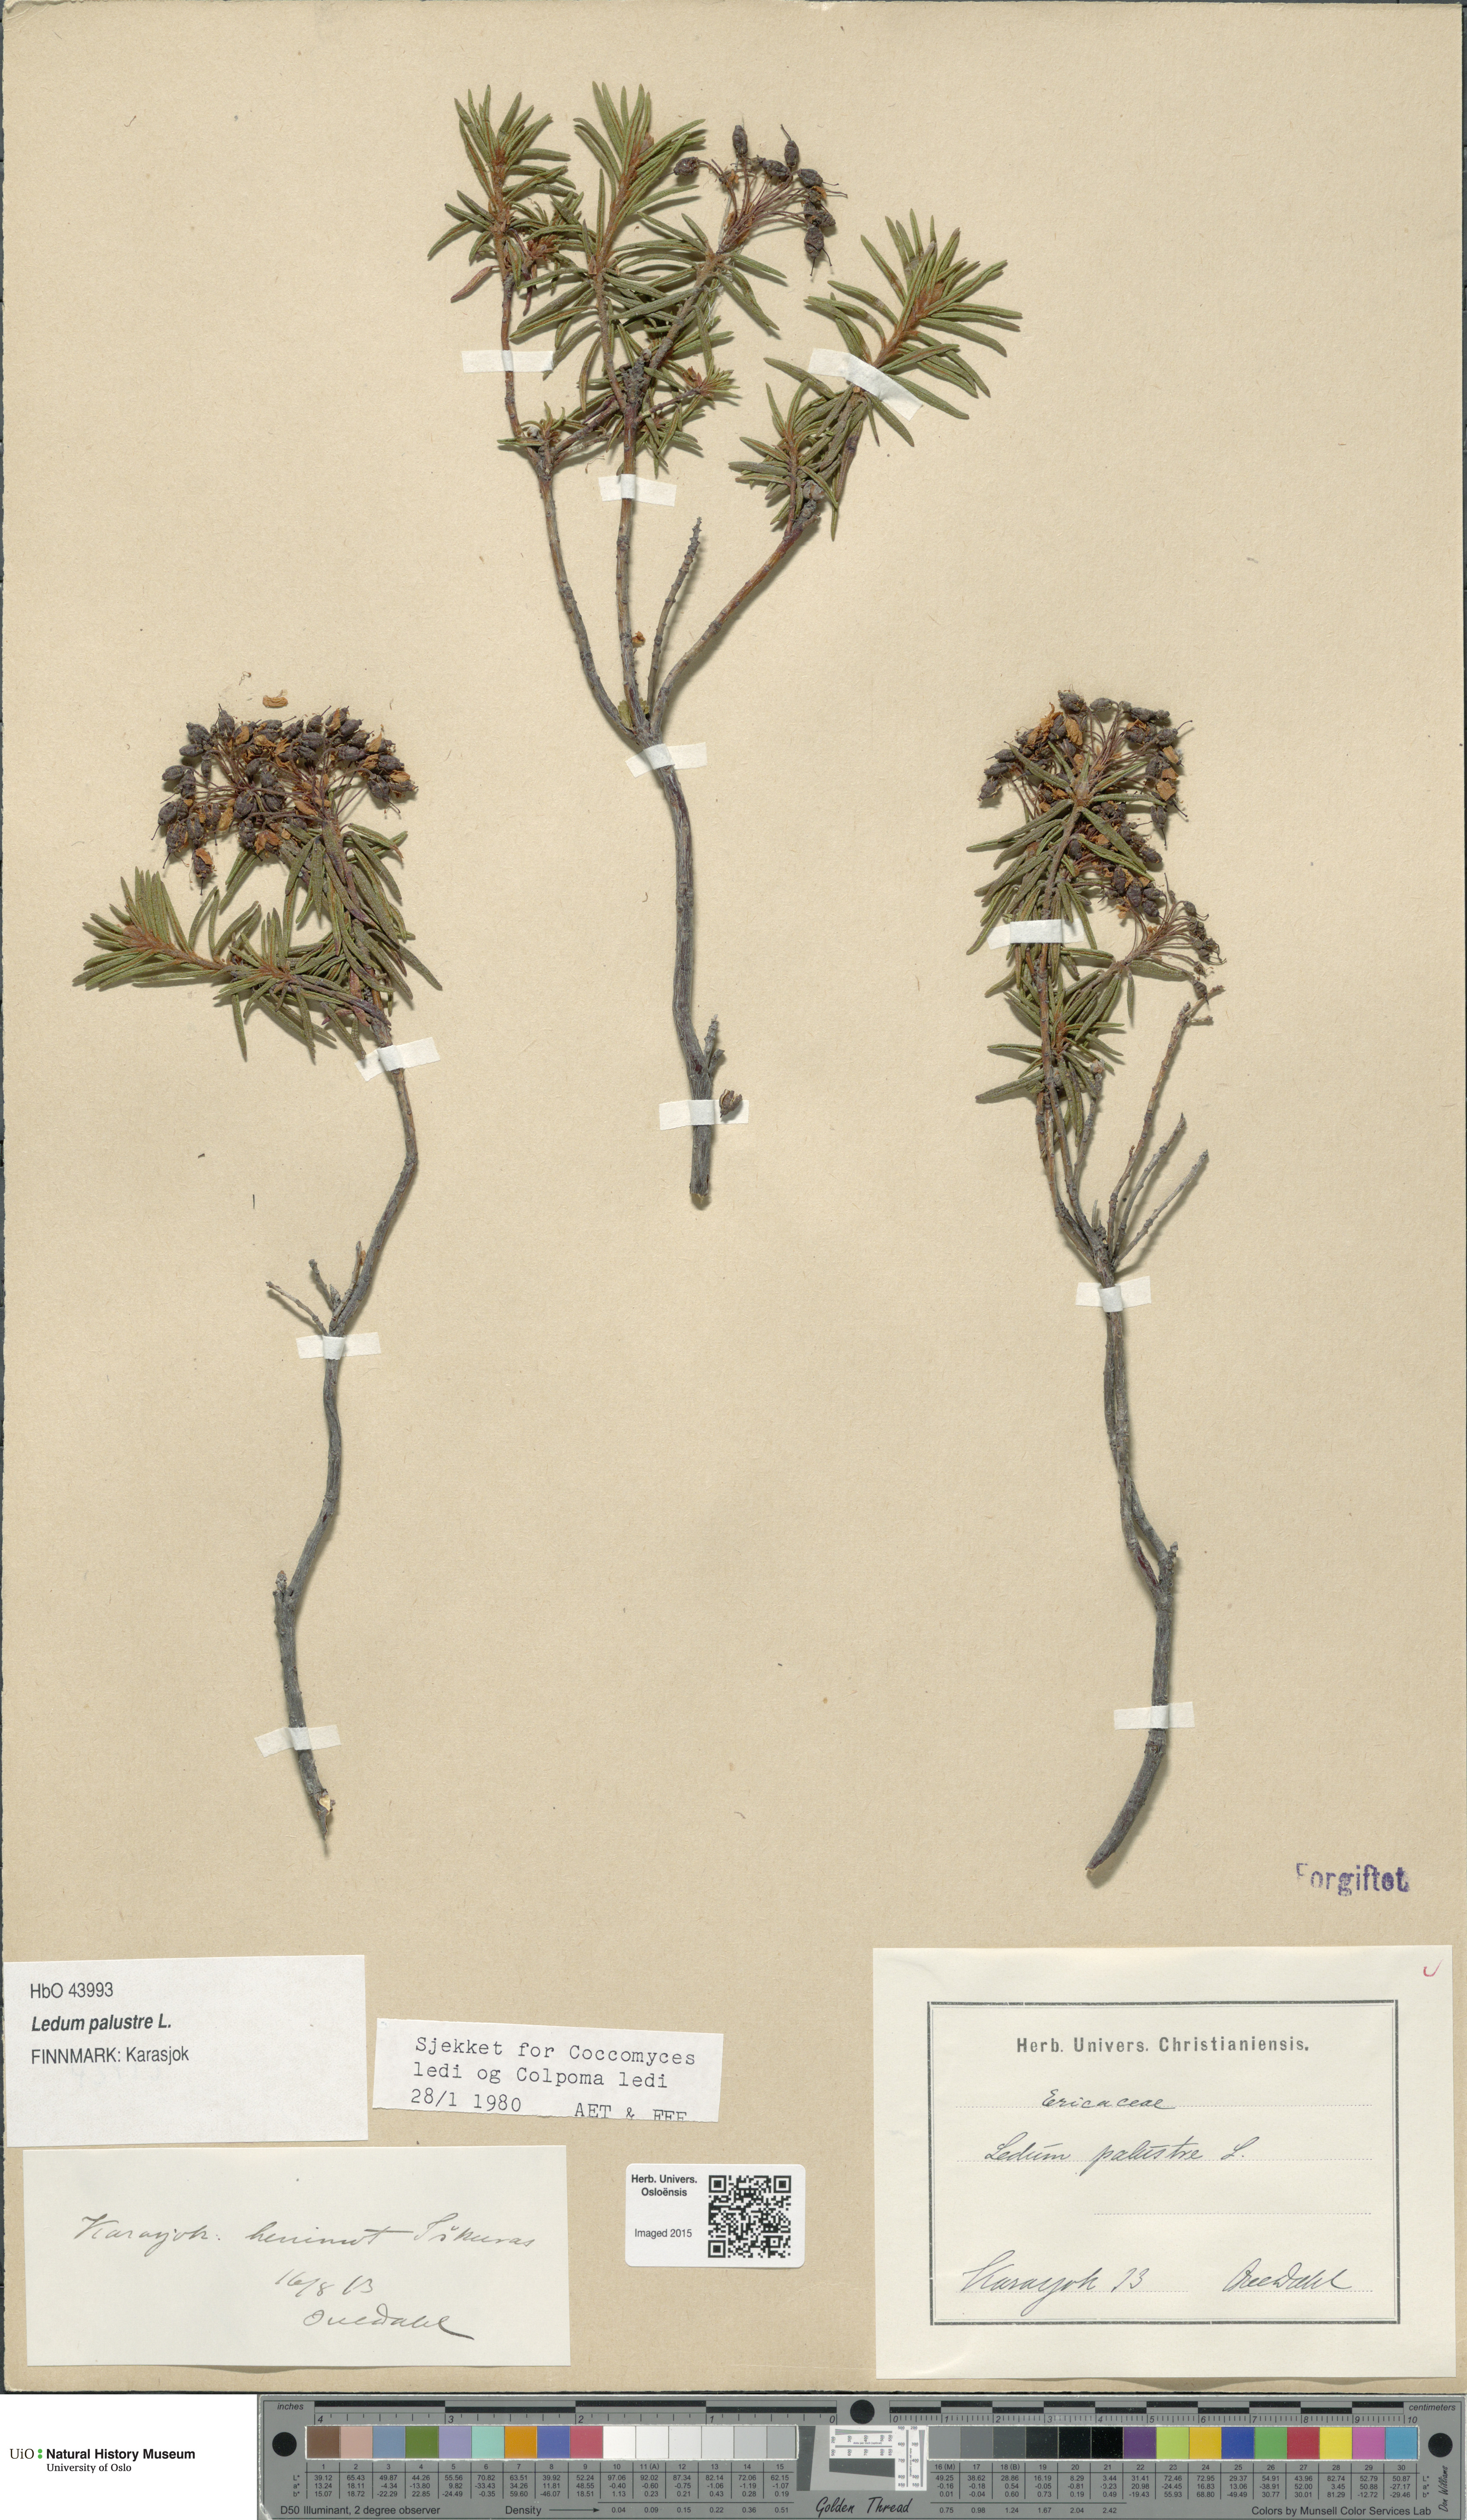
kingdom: Plantae
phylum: Tracheophyta
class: Magnoliopsida
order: Ericales
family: Ericaceae
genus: Rhododendron
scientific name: Rhododendron tomentosum
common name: Marsh labrador tea
